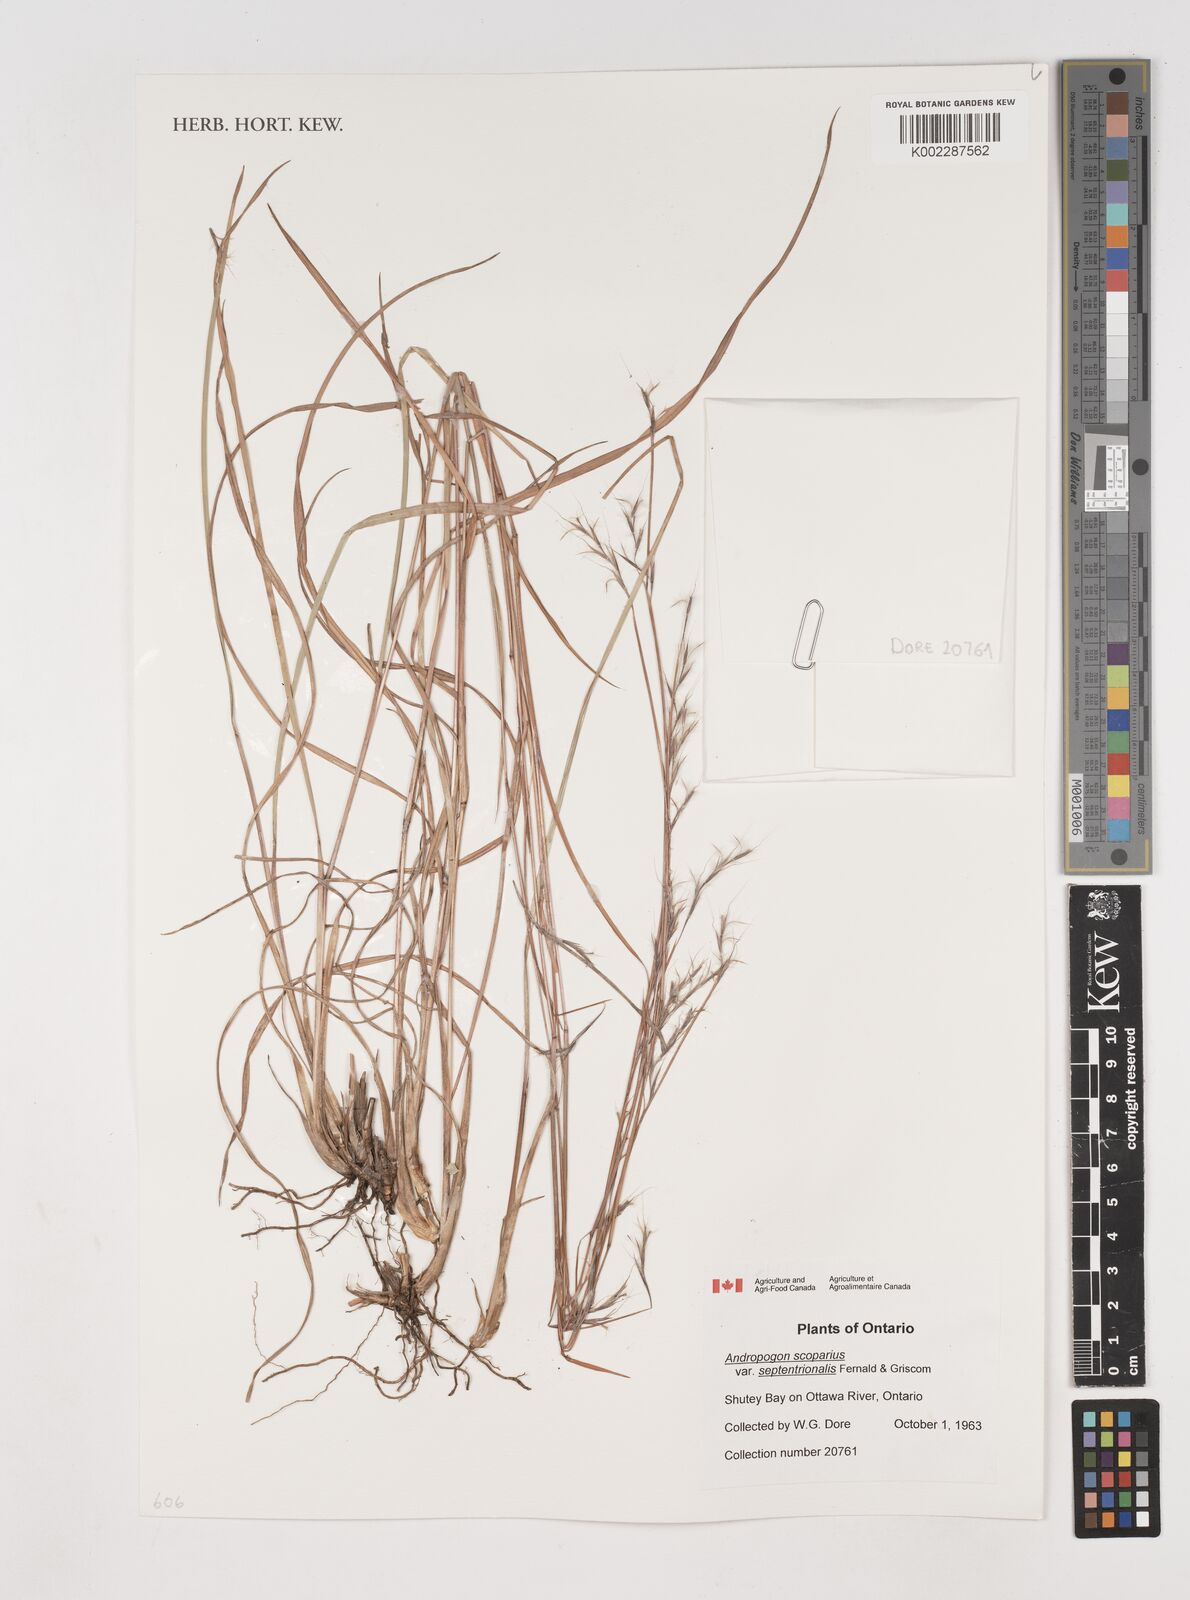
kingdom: Plantae
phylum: Tracheophyta
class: Liliopsida
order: Poales
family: Poaceae
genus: Schizachyrium
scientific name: Schizachyrium scoparium
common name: Little bluestem
